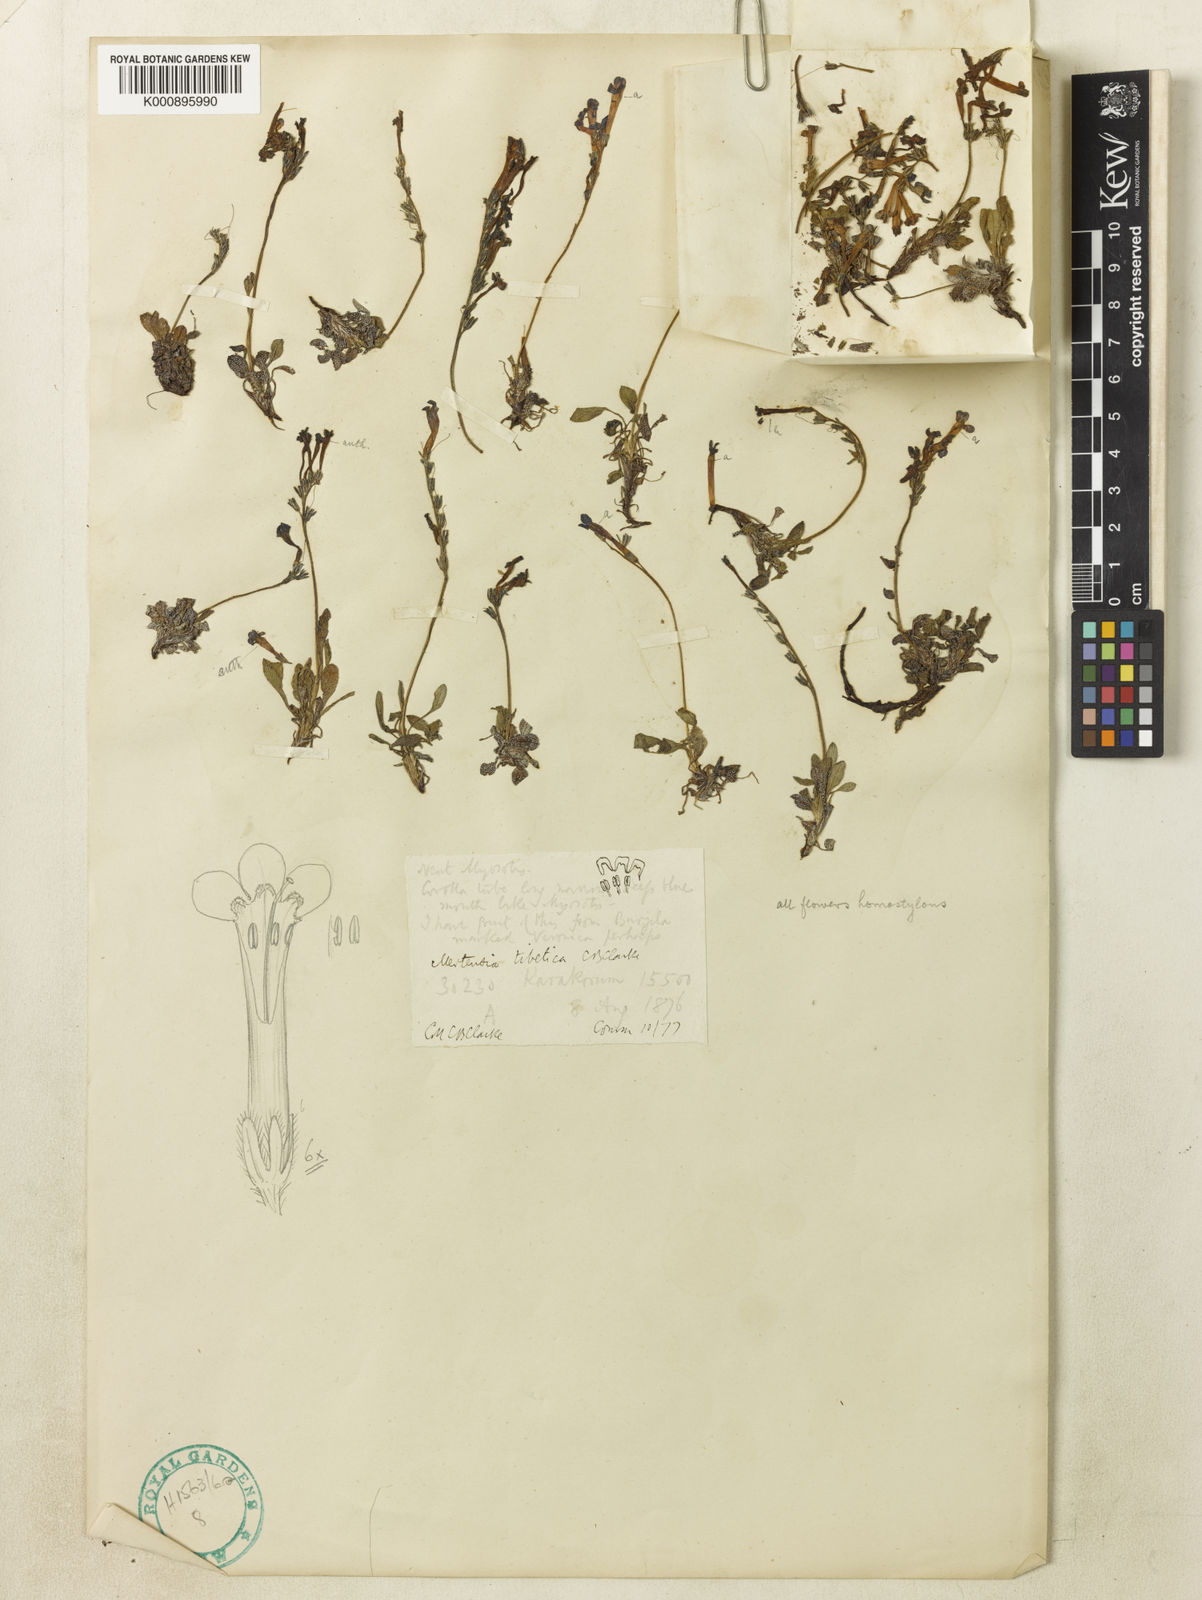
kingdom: Plantae
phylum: Tracheophyta
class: Magnoliopsida
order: Boraginales
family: Boraginaceae
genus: Decalepidanthus
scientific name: Decalepidanthus primuloides
